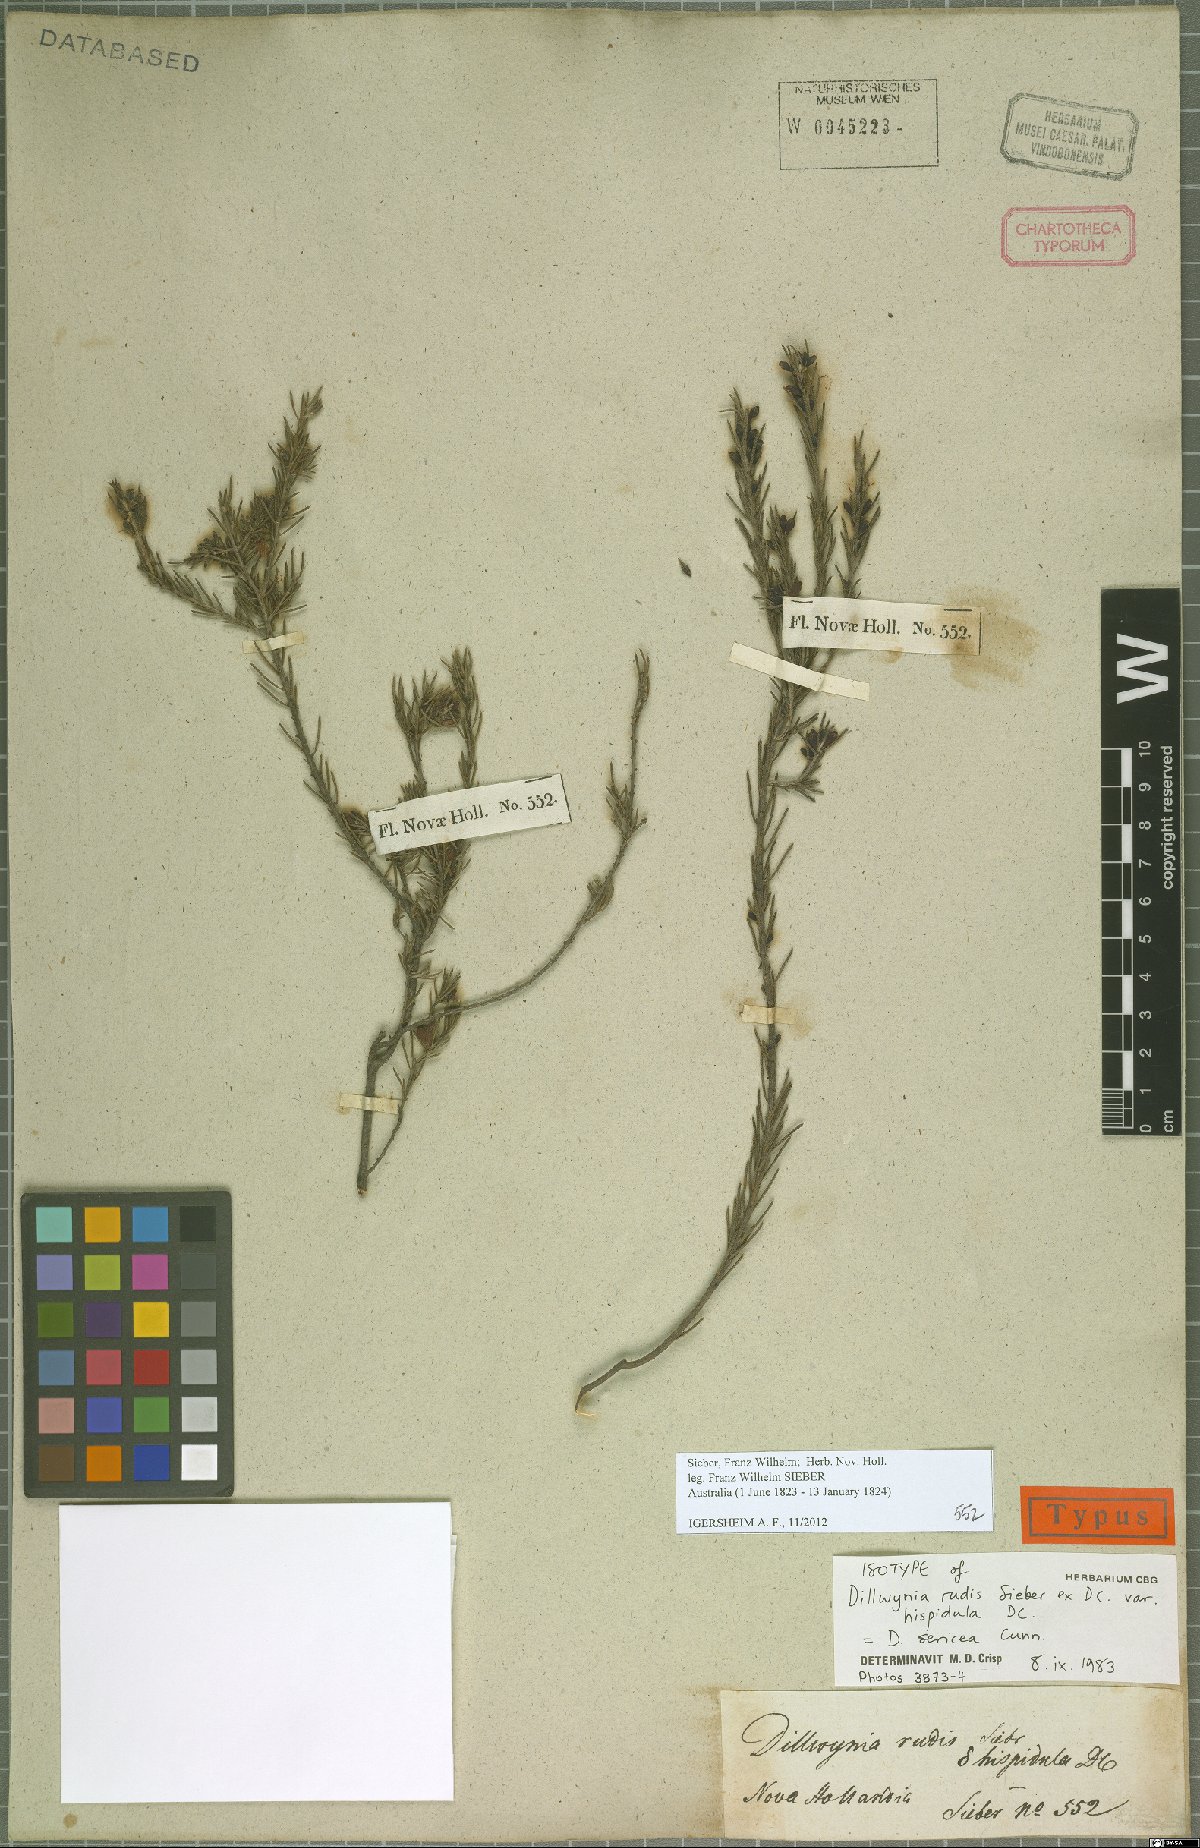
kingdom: Plantae
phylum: Tracheophyta
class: Magnoliopsida
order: Fabales
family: Fabaceae
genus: Dillwynia
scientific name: Dillwynia sericea
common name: Showy parrot-pea
